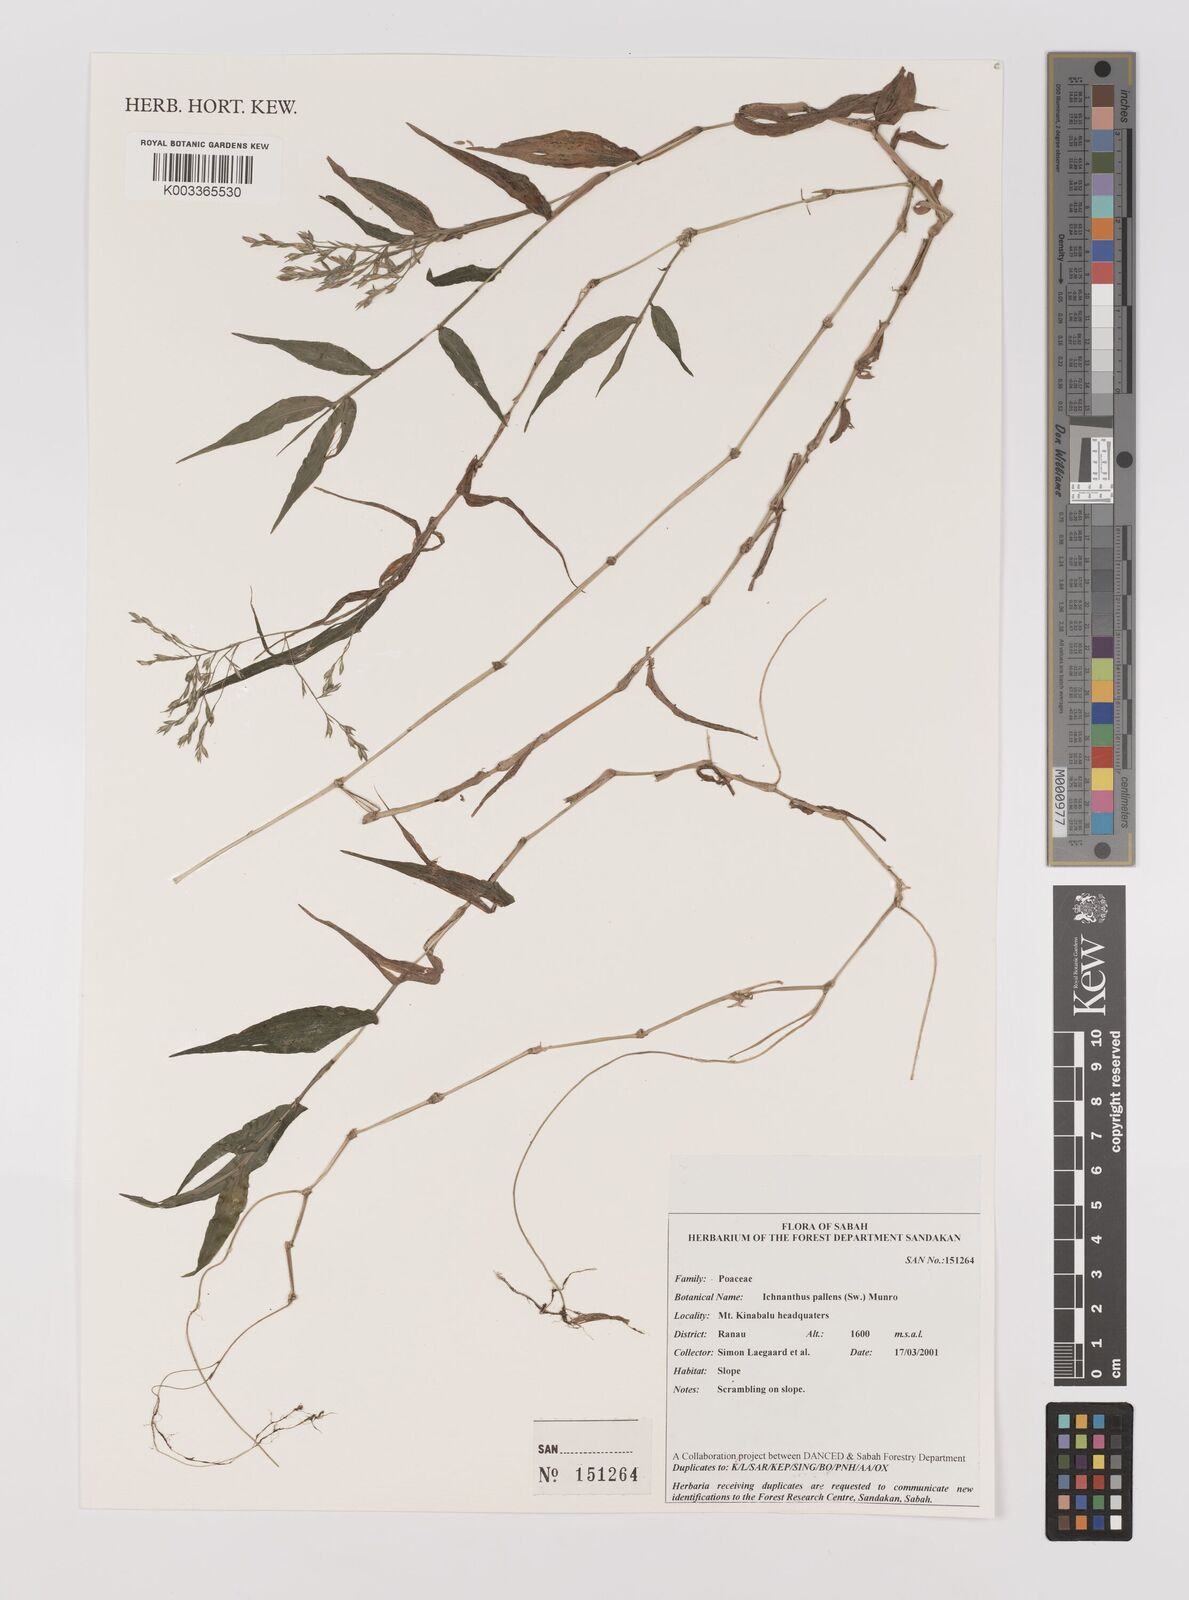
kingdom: Plantae
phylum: Tracheophyta
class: Liliopsida
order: Poales
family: Poaceae
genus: Ichnanthus
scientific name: Ichnanthus pallens
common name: Water grass
